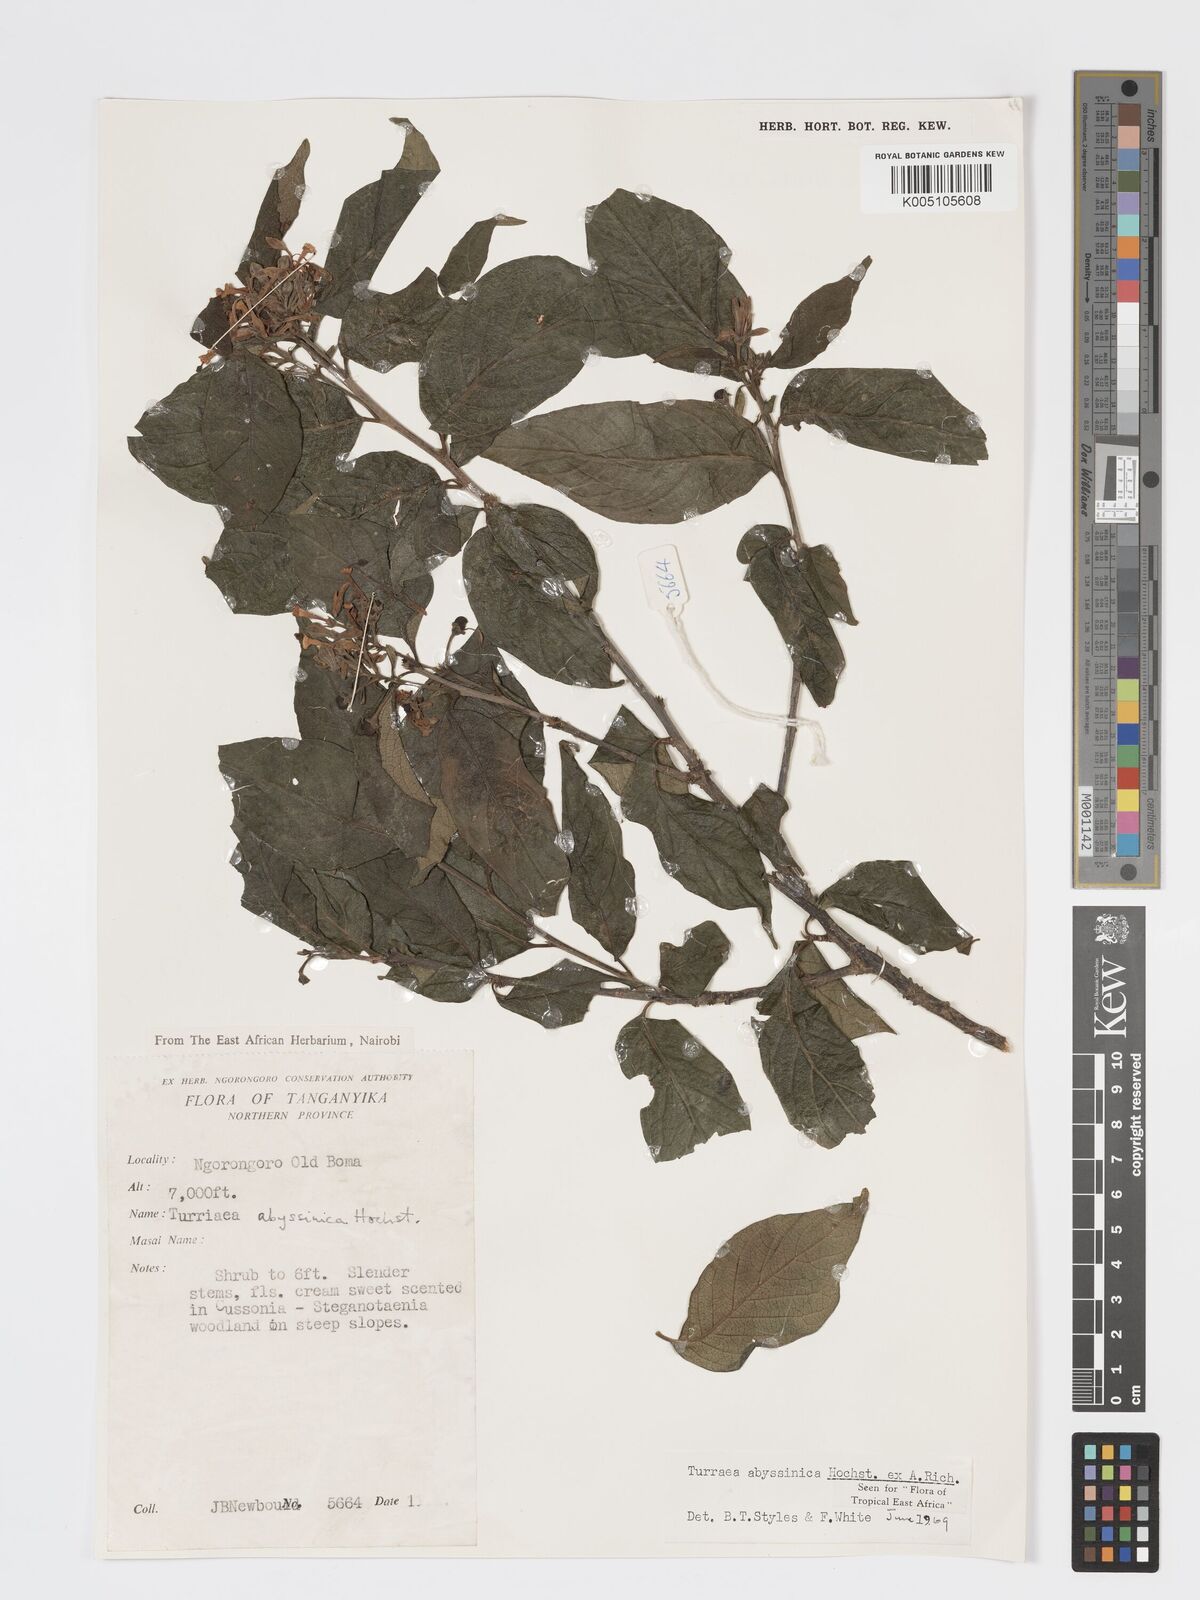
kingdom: Plantae
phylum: Tracheophyta
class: Magnoliopsida
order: Sapindales
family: Meliaceae
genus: Turraea
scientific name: Turraea abyssinica
